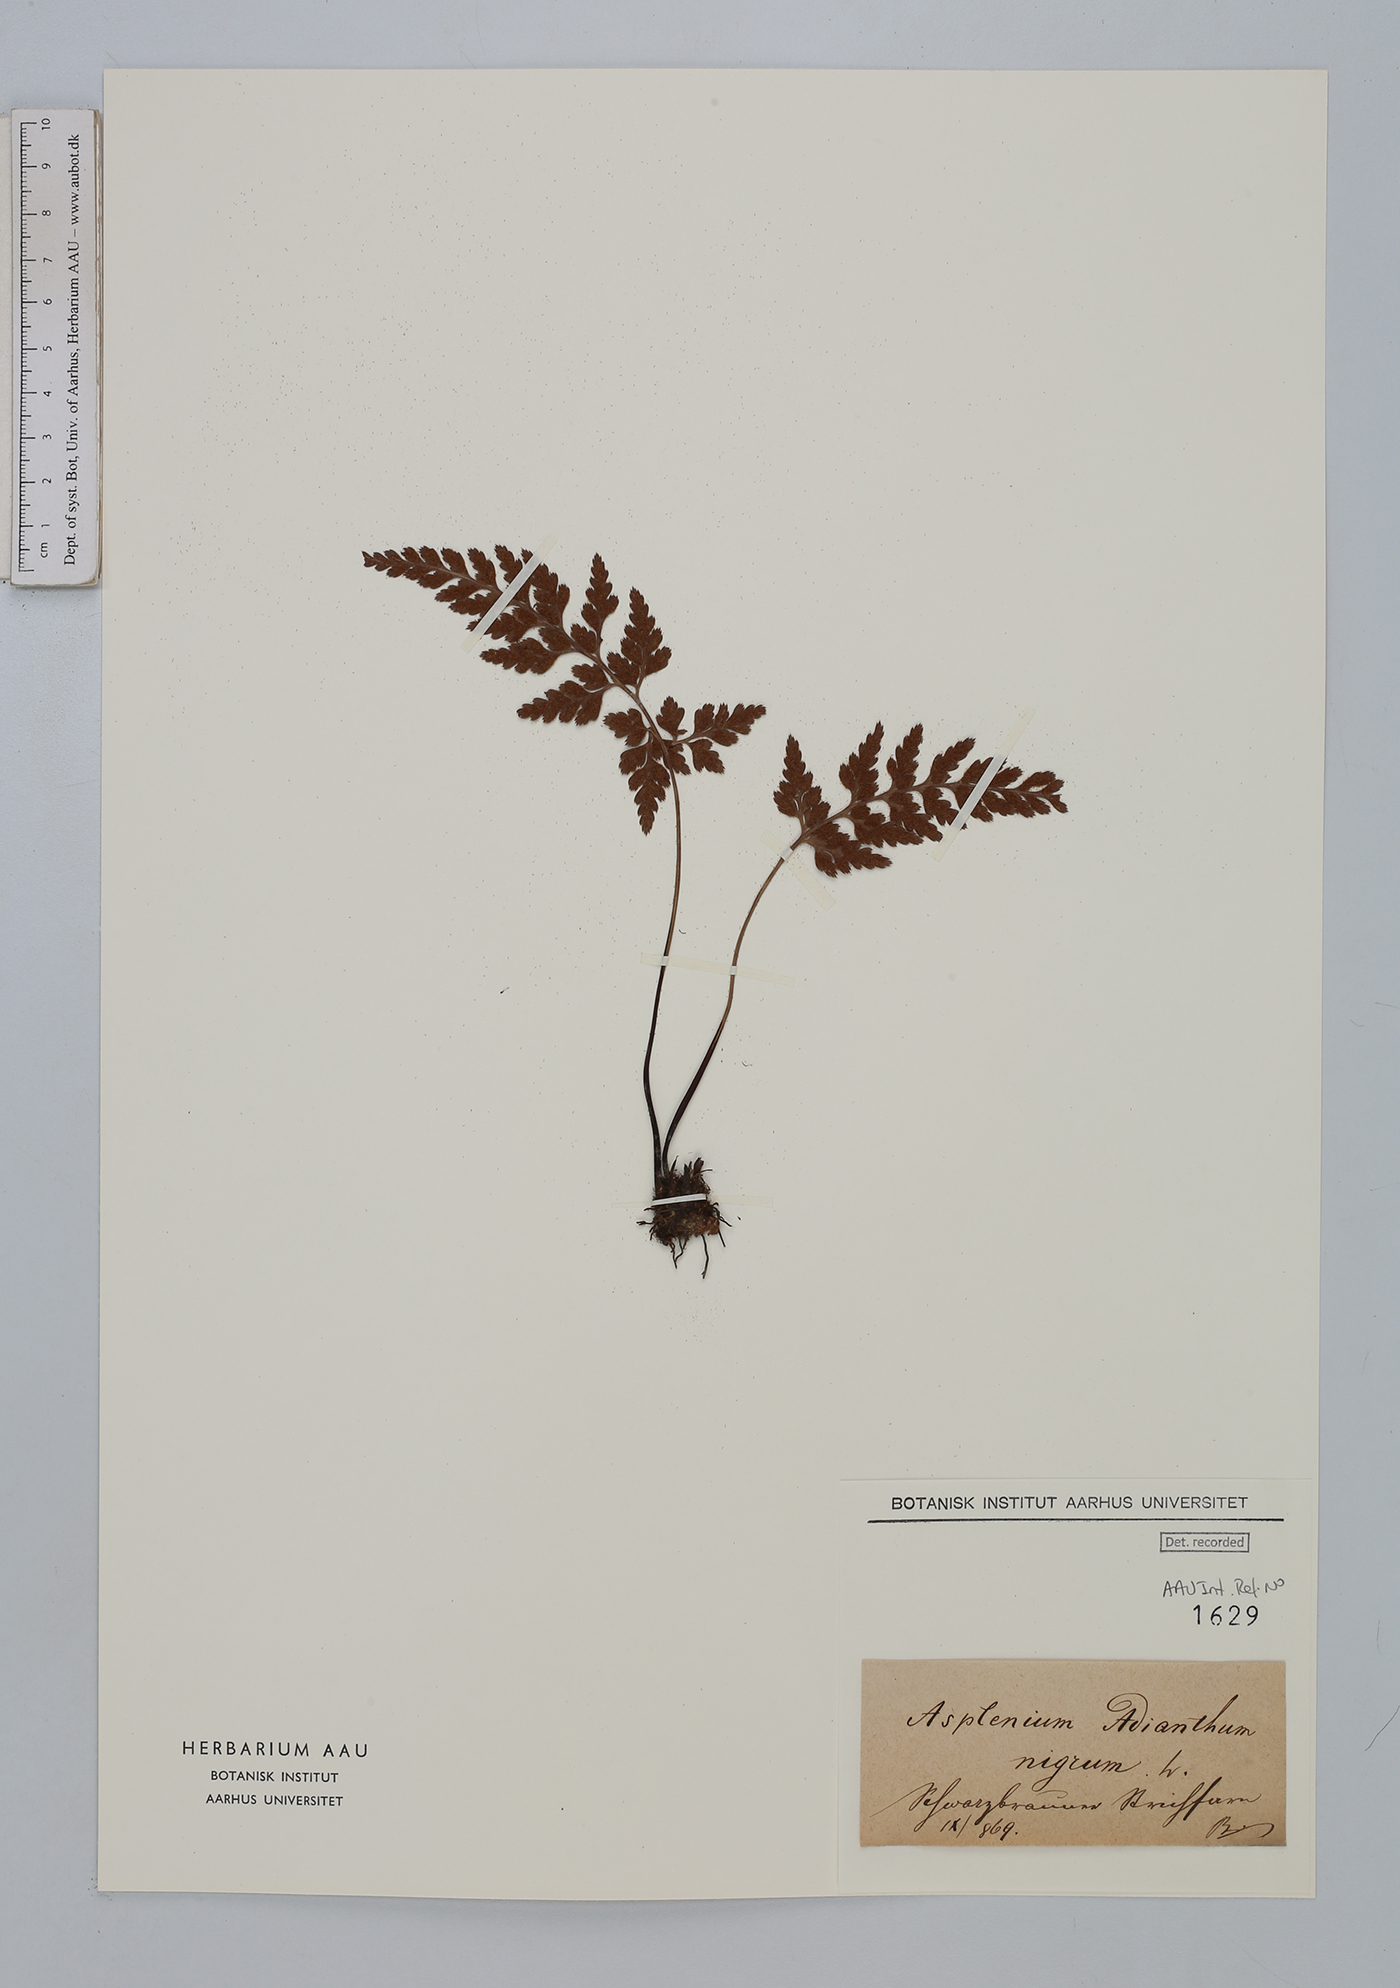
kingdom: Plantae
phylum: Tracheophyta
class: Polypodiopsida
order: Polypodiales
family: Aspleniaceae
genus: Asplenium
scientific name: Asplenium adiantum-nigrum
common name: Black spleenwort
